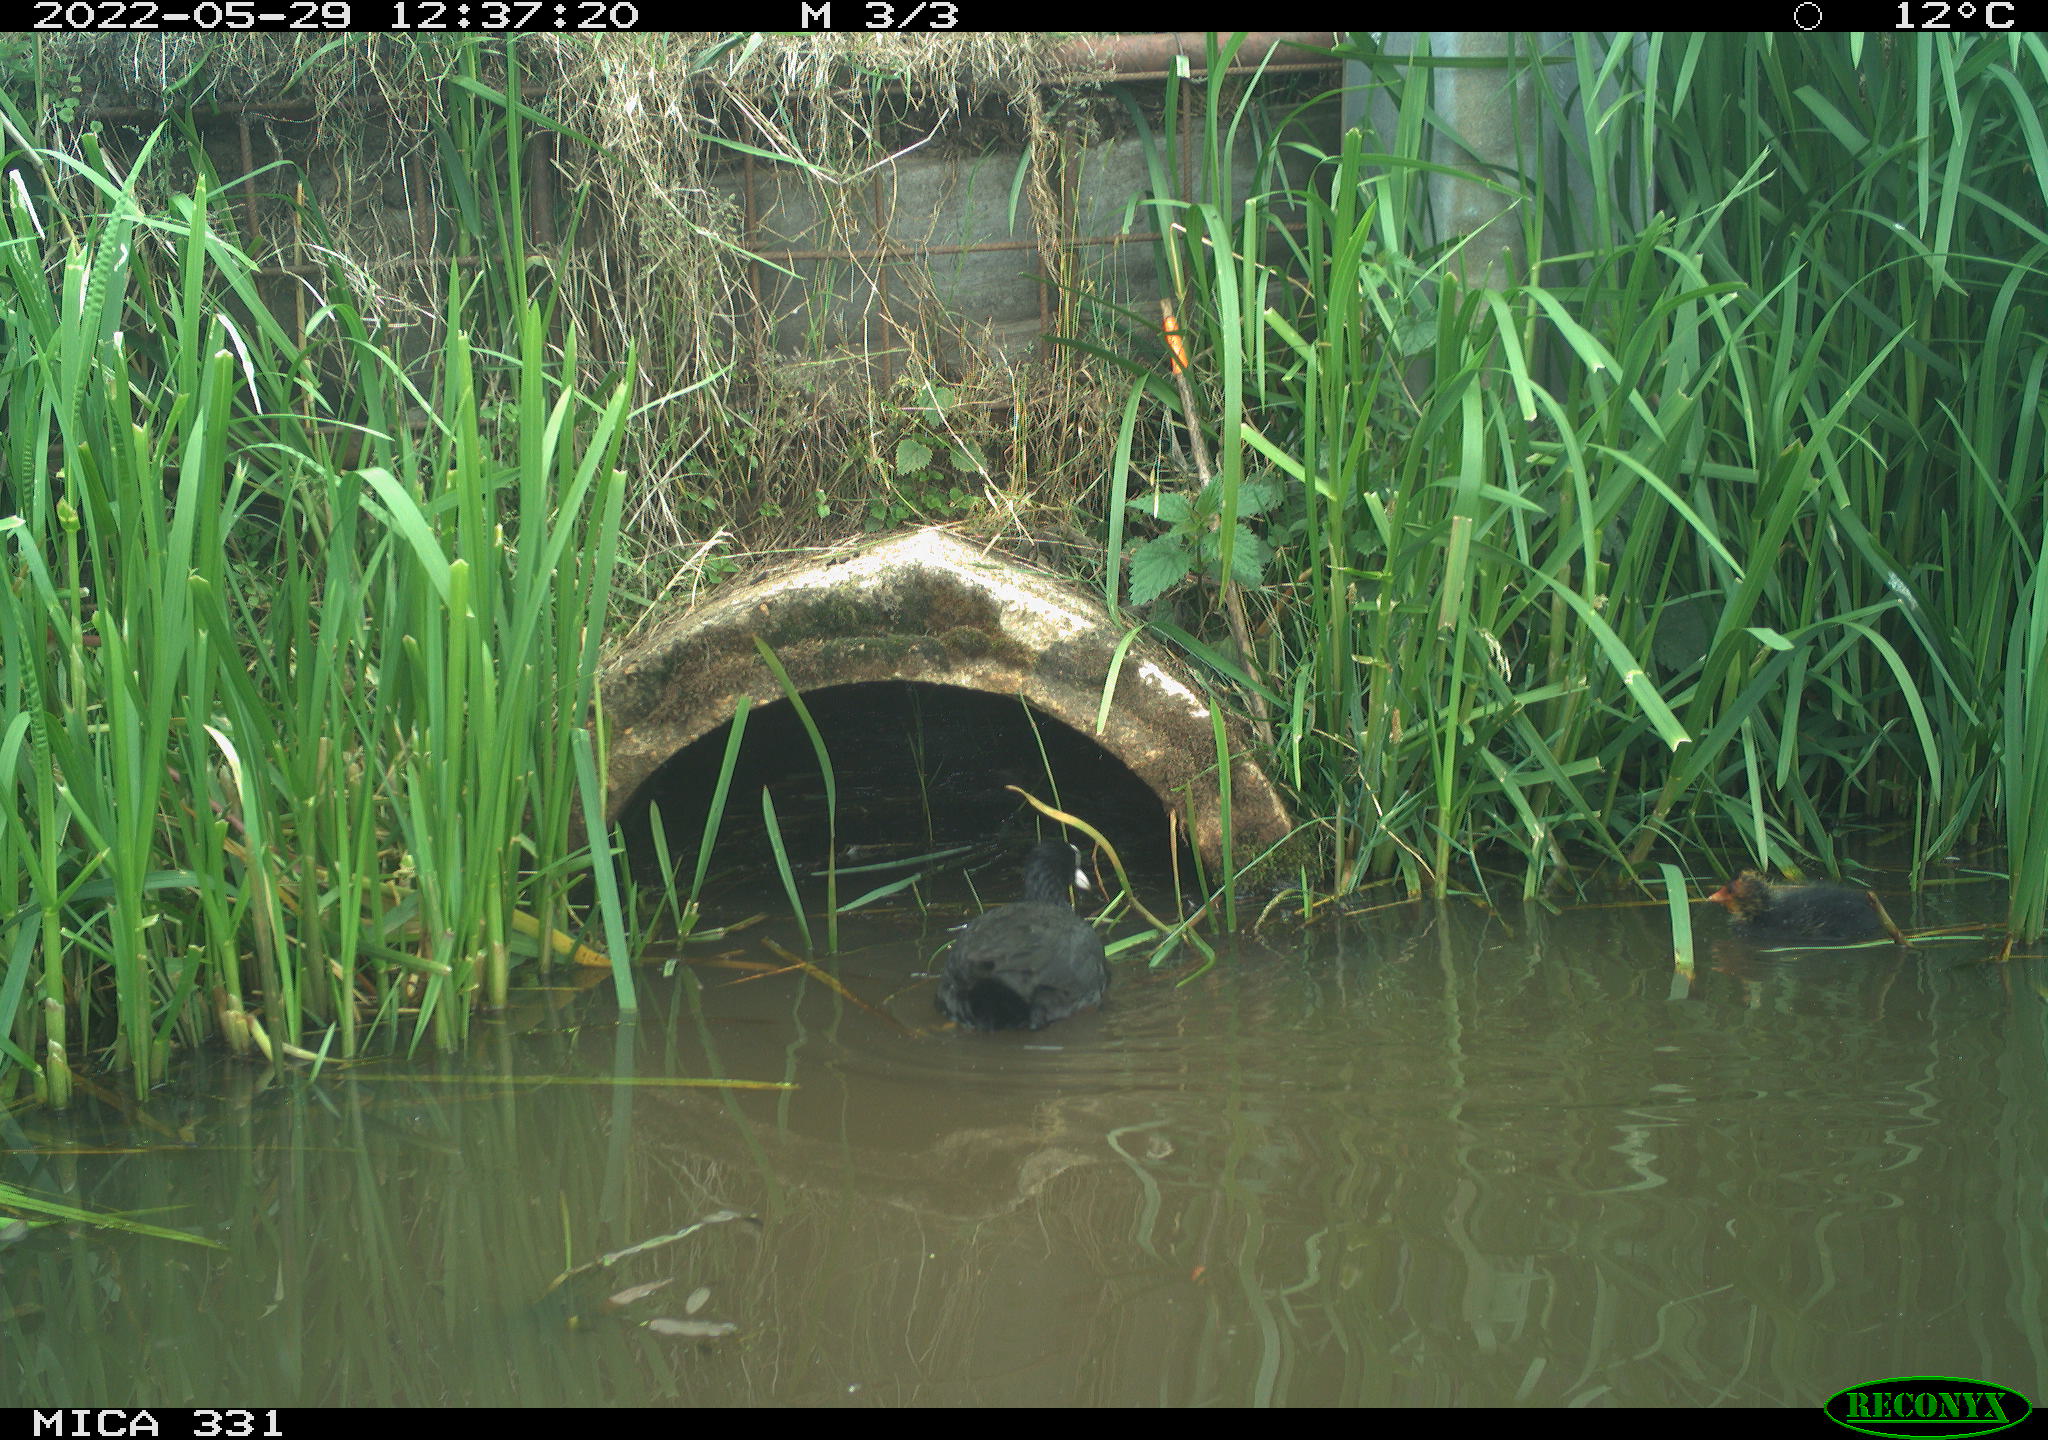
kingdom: Animalia
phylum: Chordata
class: Aves
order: Gruiformes
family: Rallidae
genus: Fulica
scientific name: Fulica atra
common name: Eurasian coot
